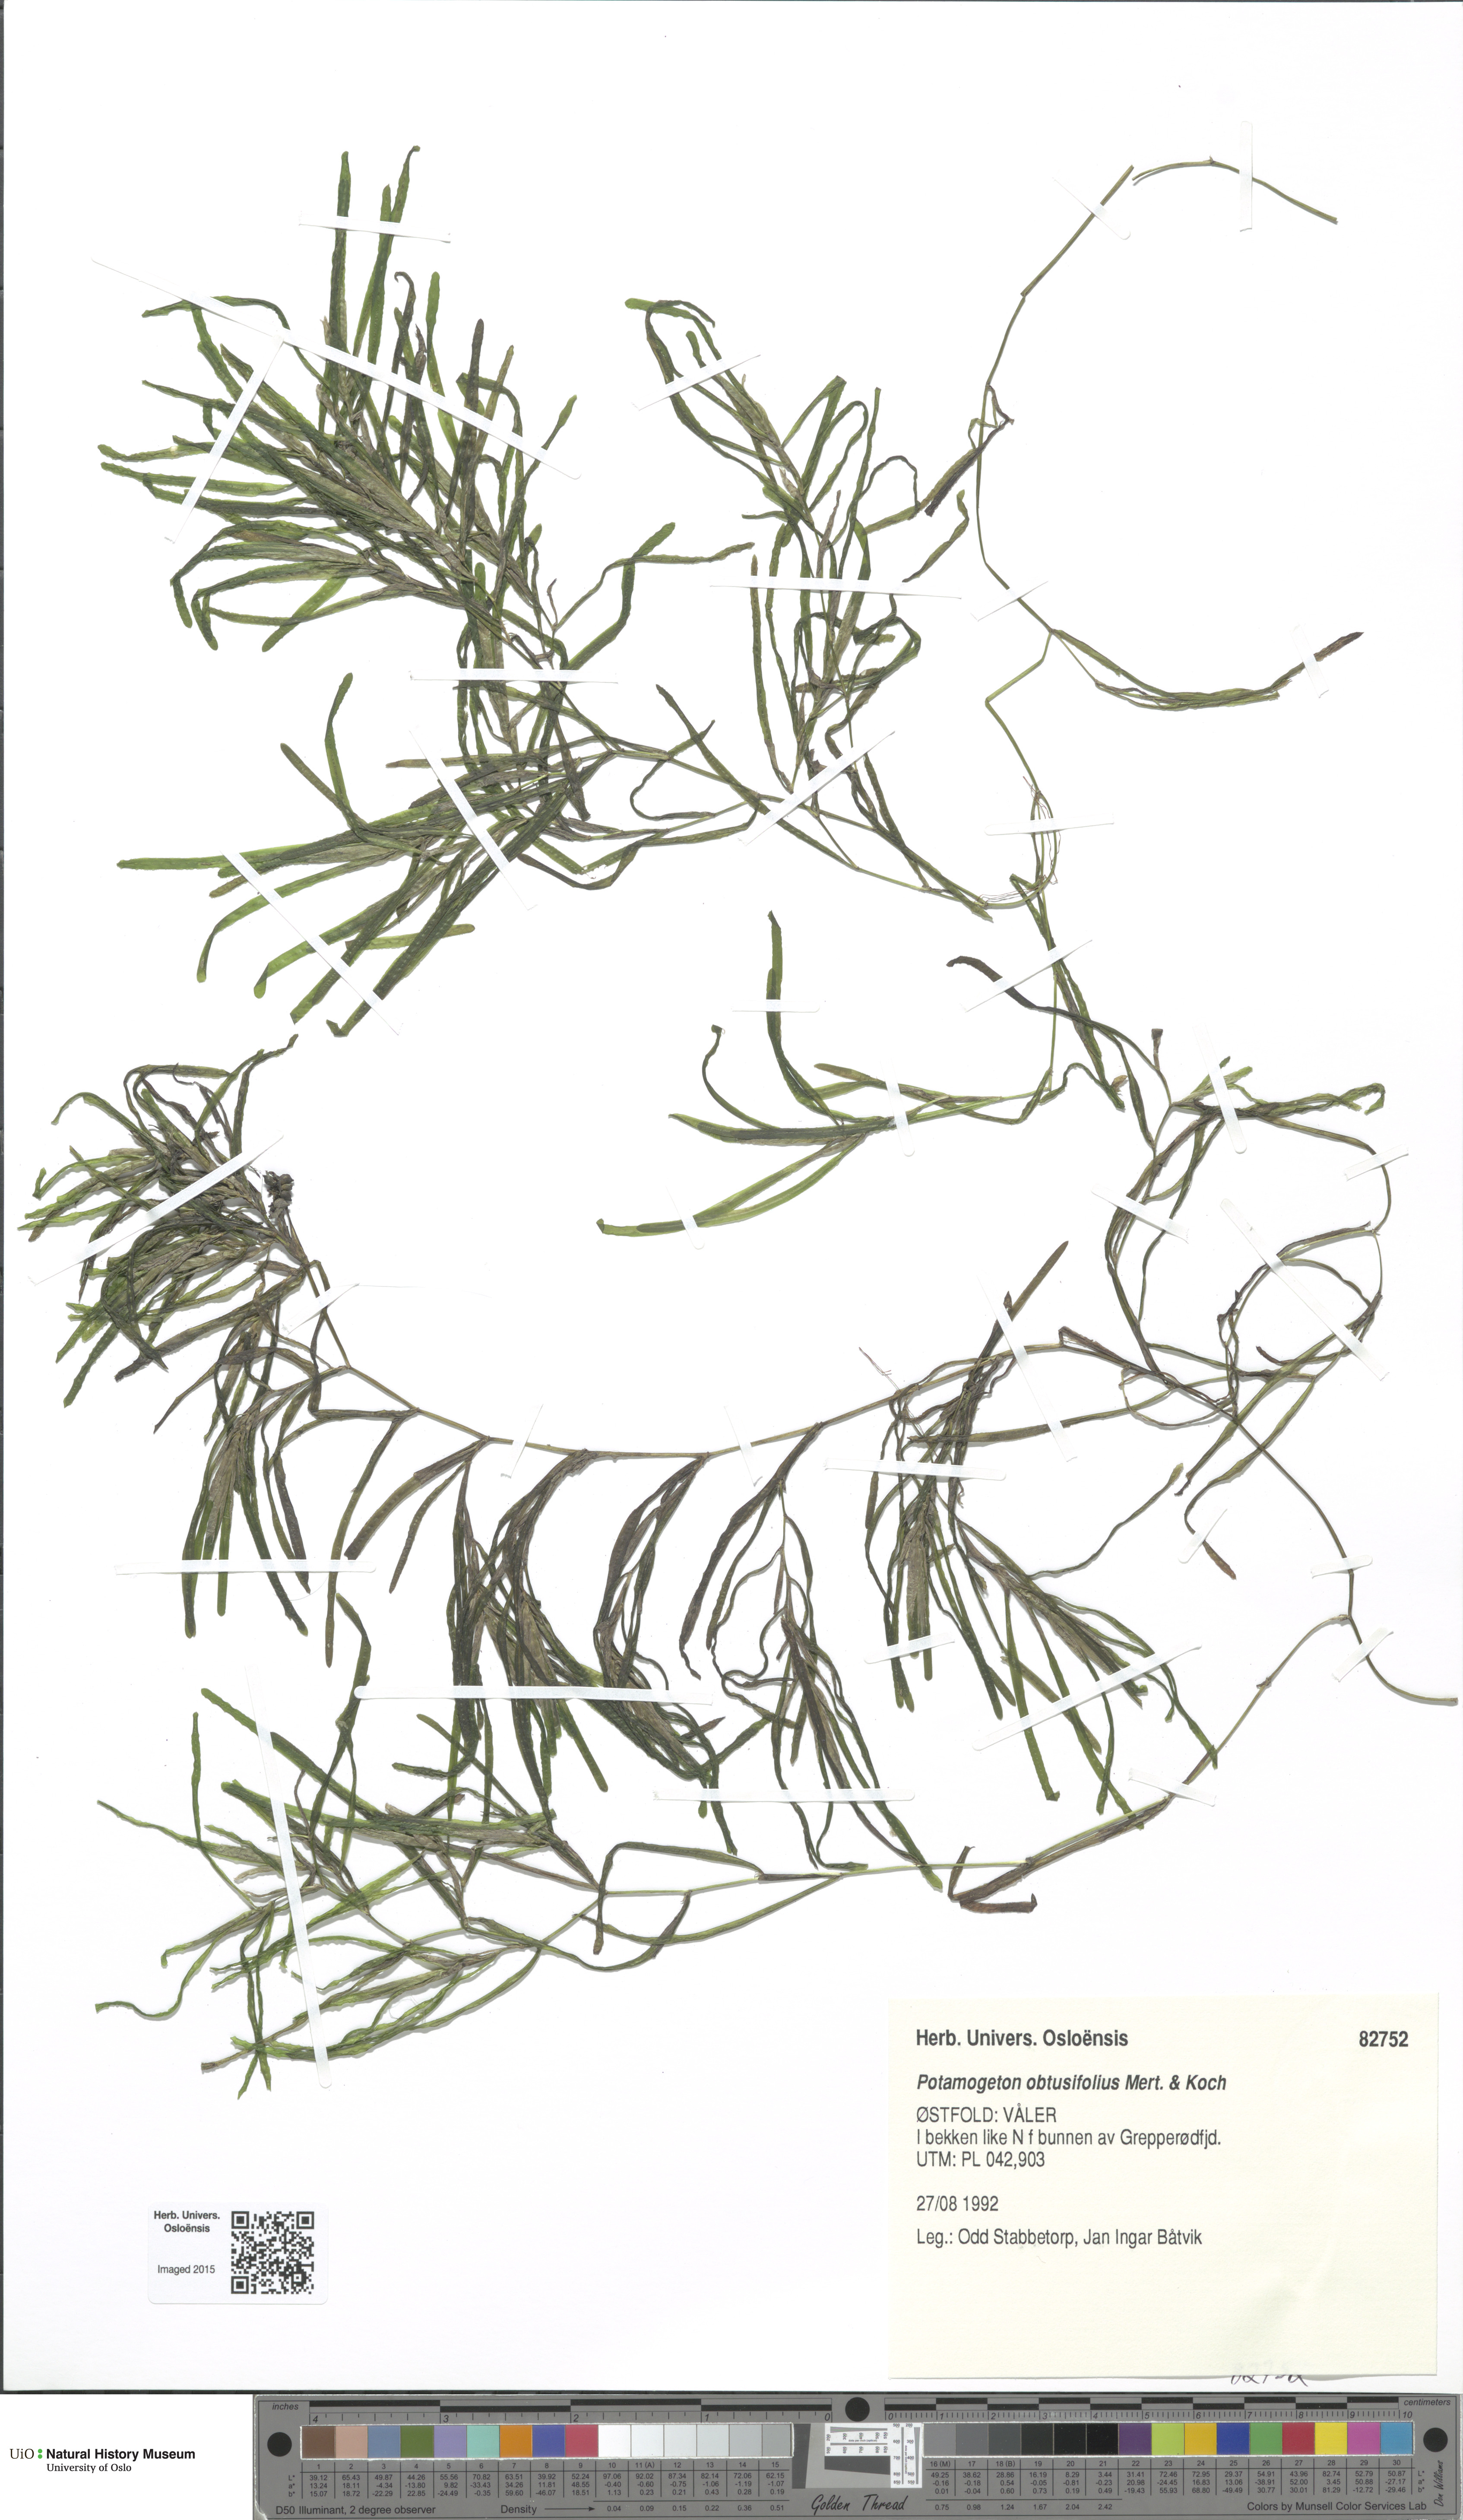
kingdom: Plantae
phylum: Tracheophyta
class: Liliopsida
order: Alismatales
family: Potamogetonaceae
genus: Potamogeton
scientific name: Potamogeton obtusifolius
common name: Blunt-leaved pondweed
